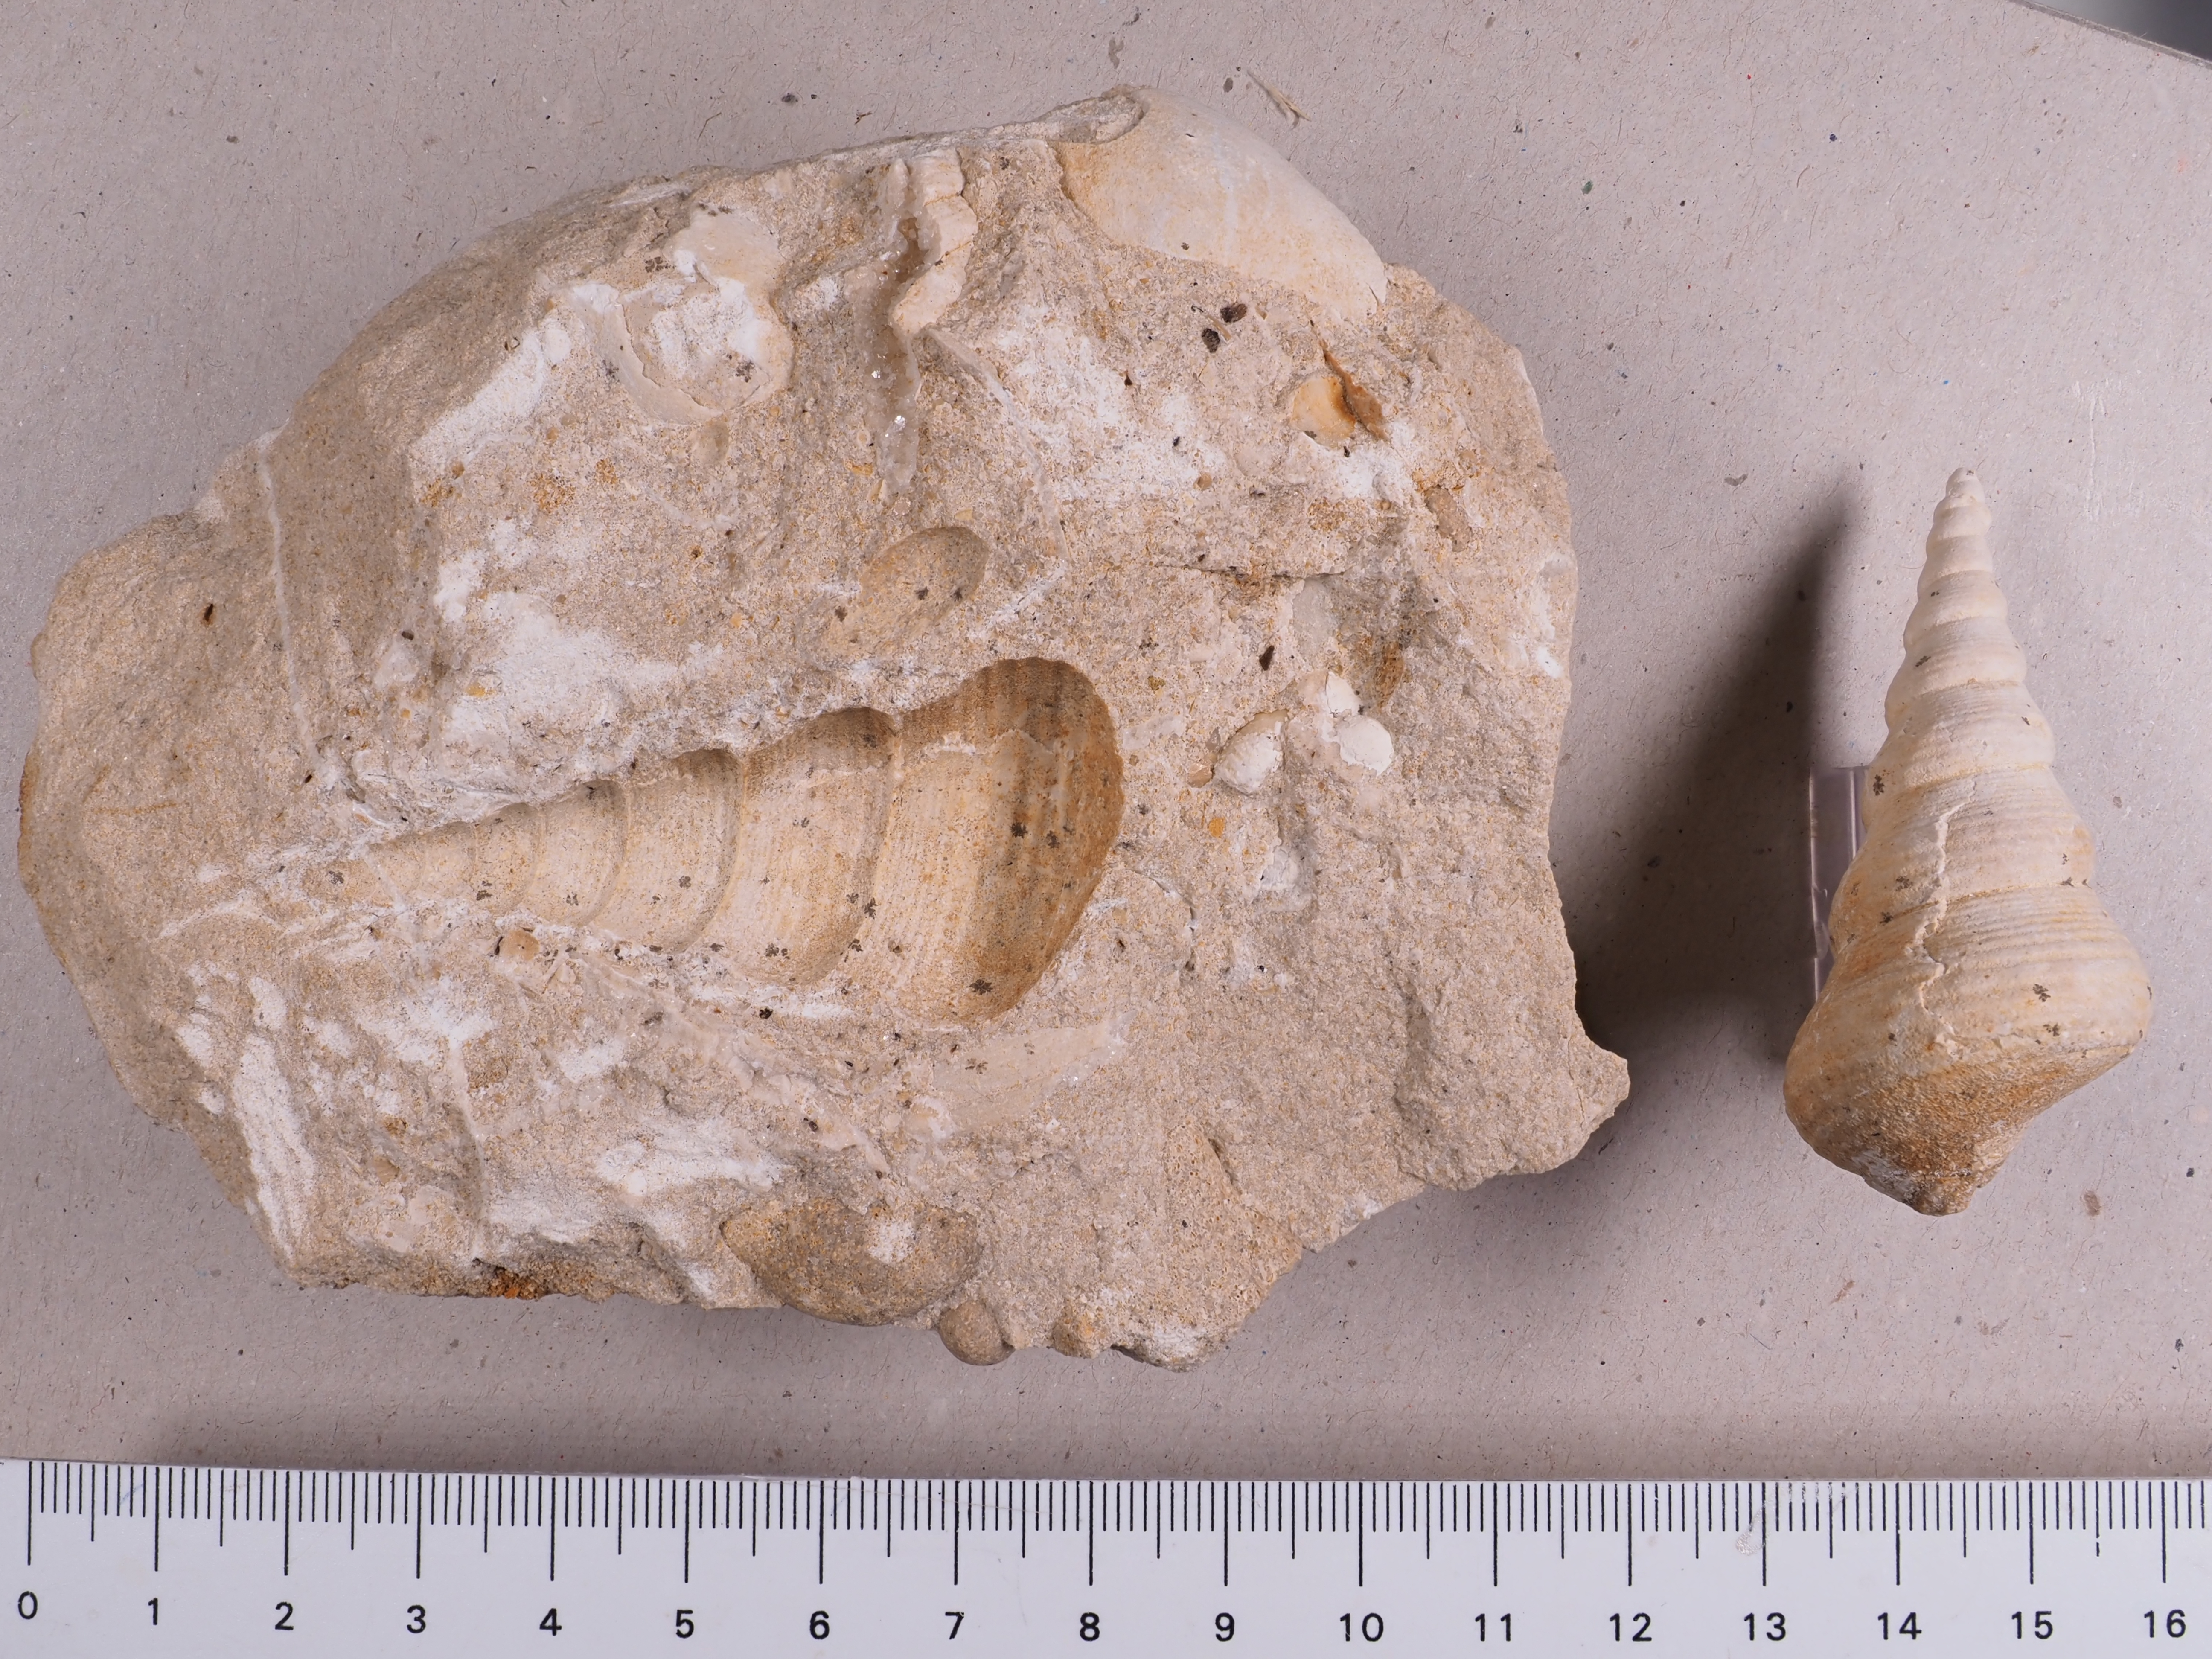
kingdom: Animalia
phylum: Mollusca
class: Gastropoda
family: Pseudomelaniidae
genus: Bourgetia
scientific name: Bourgetia Turritella deshayesea
